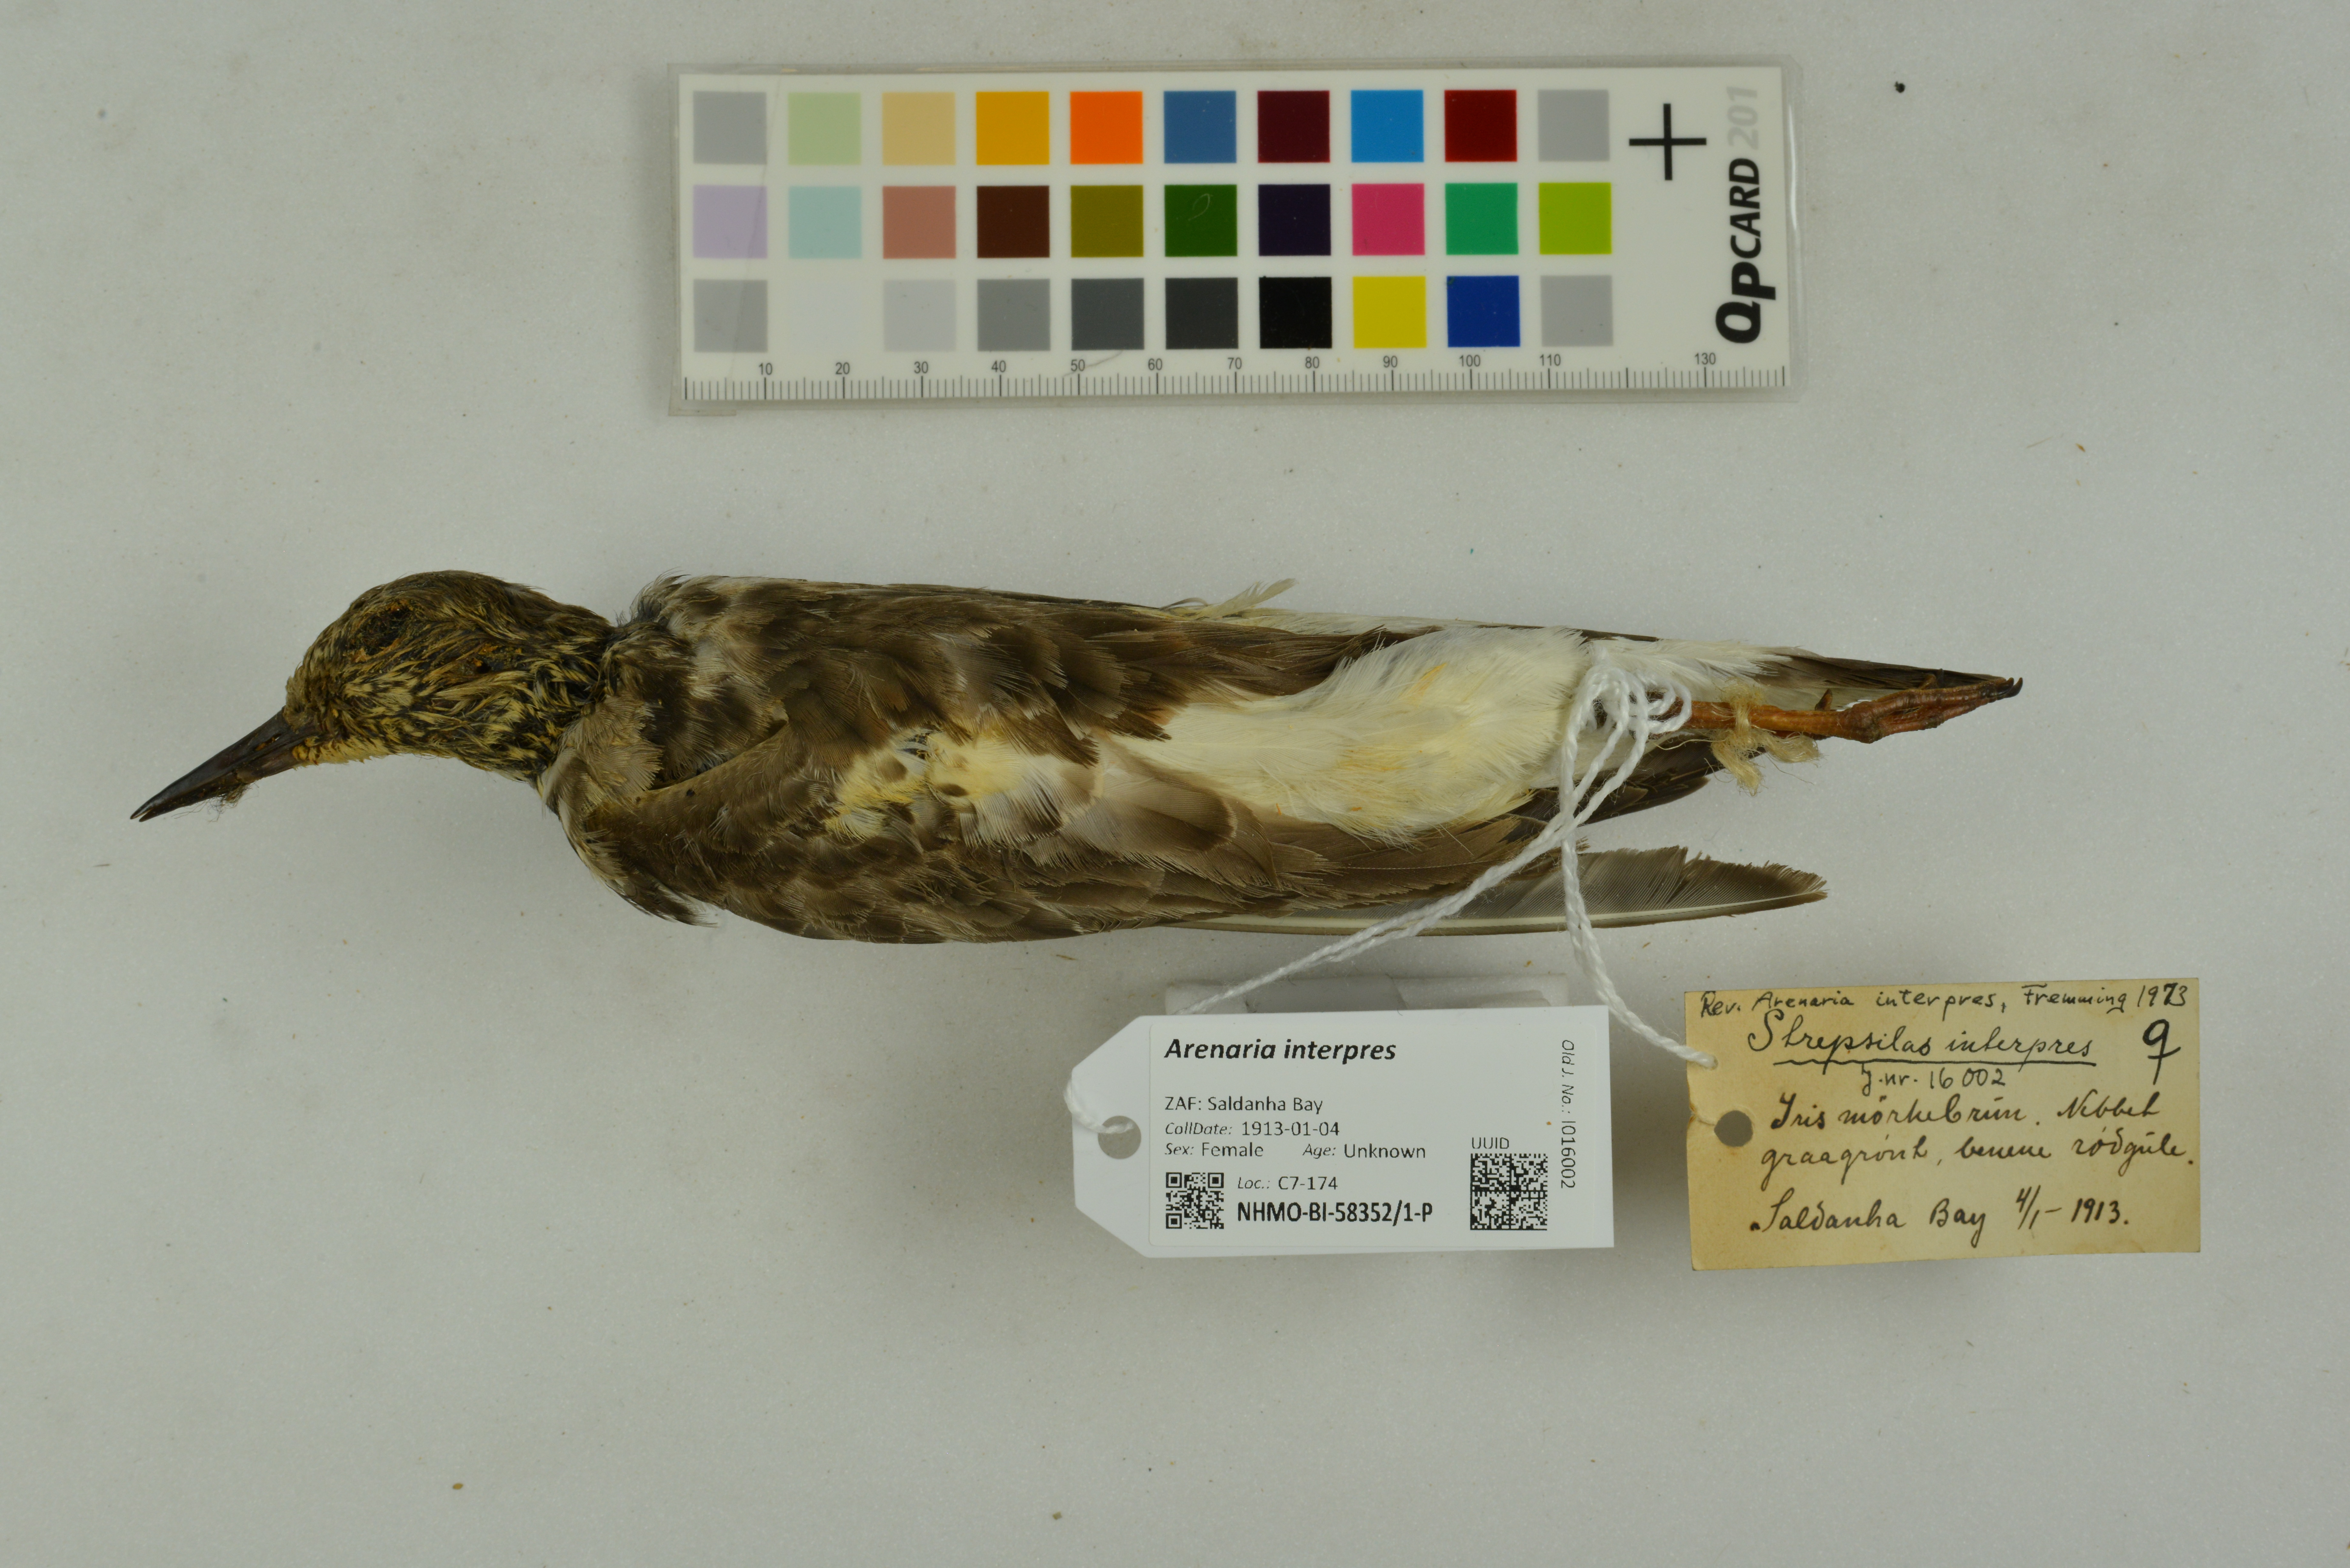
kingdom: Animalia
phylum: Chordata
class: Aves
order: Charadriiformes
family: Scolopacidae
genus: Arenaria
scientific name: Arenaria interpres
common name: Ruddy turnstone
